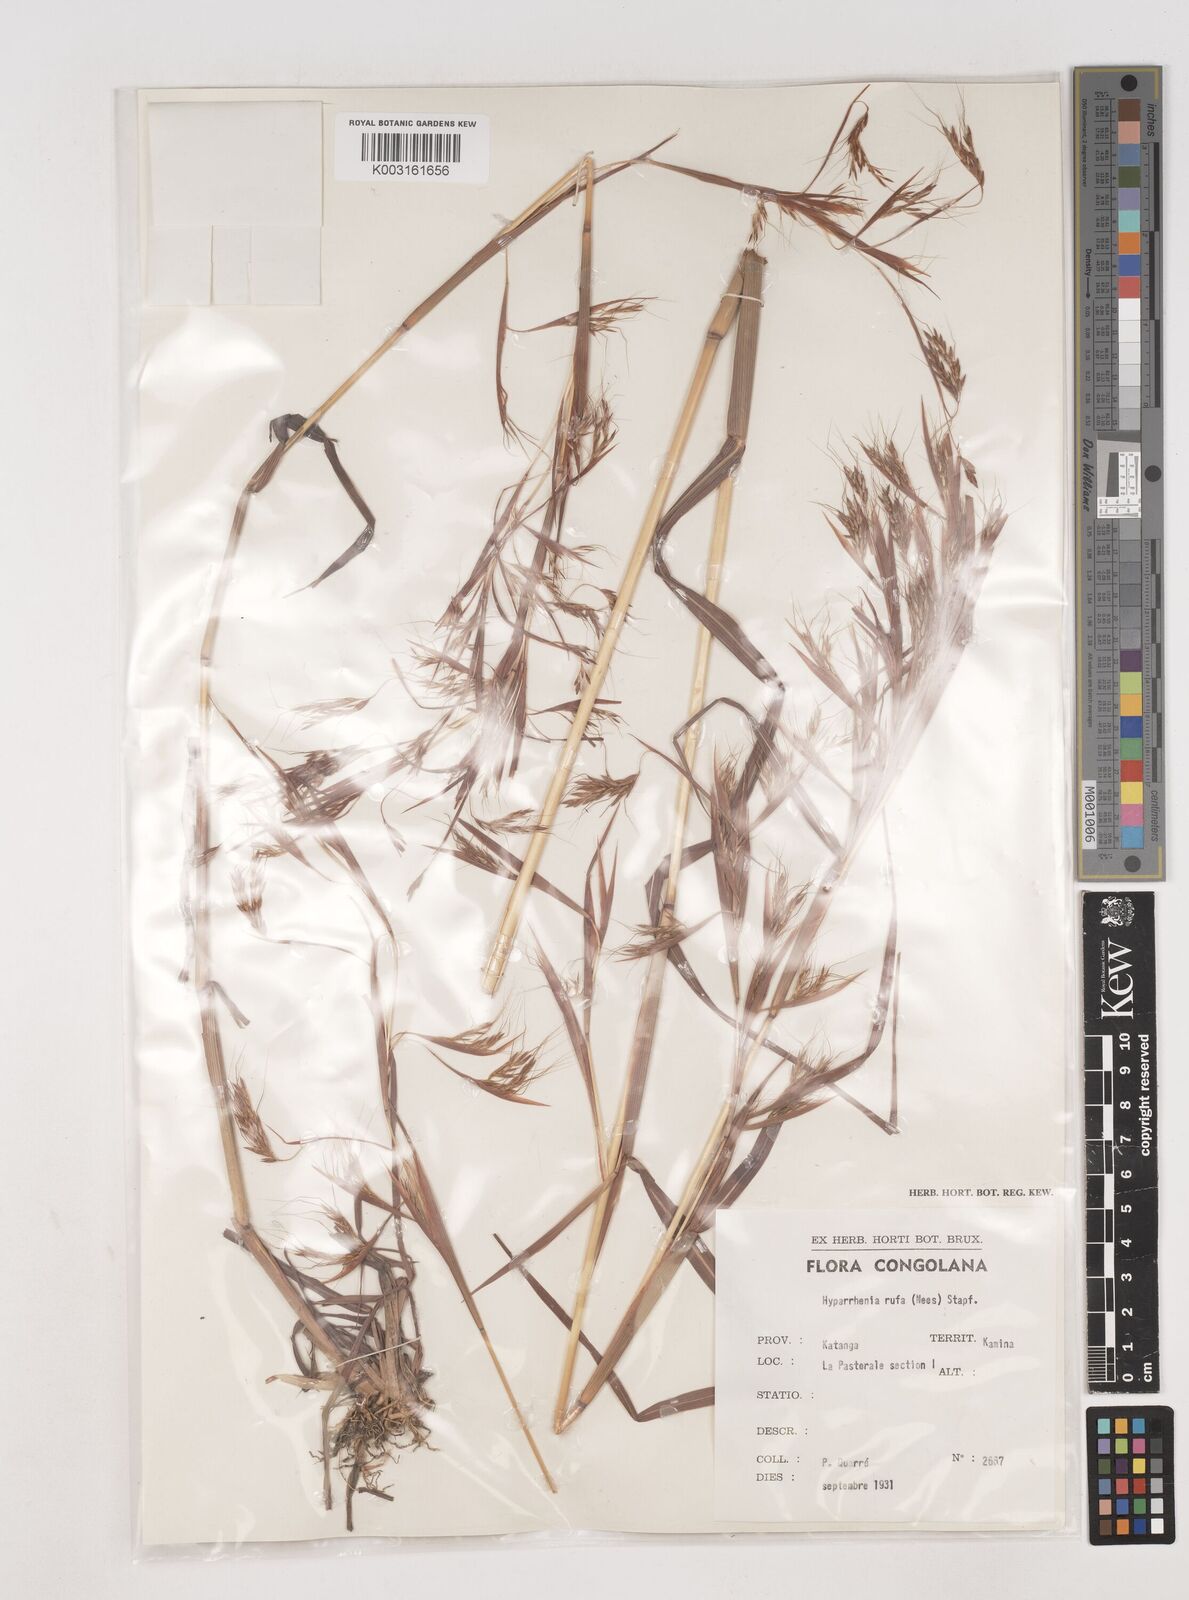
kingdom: Plantae
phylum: Tracheophyta
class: Liliopsida
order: Poales
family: Poaceae
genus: Hyparrhenia
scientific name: Hyparrhenia rufa
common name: Jaraguagrass
